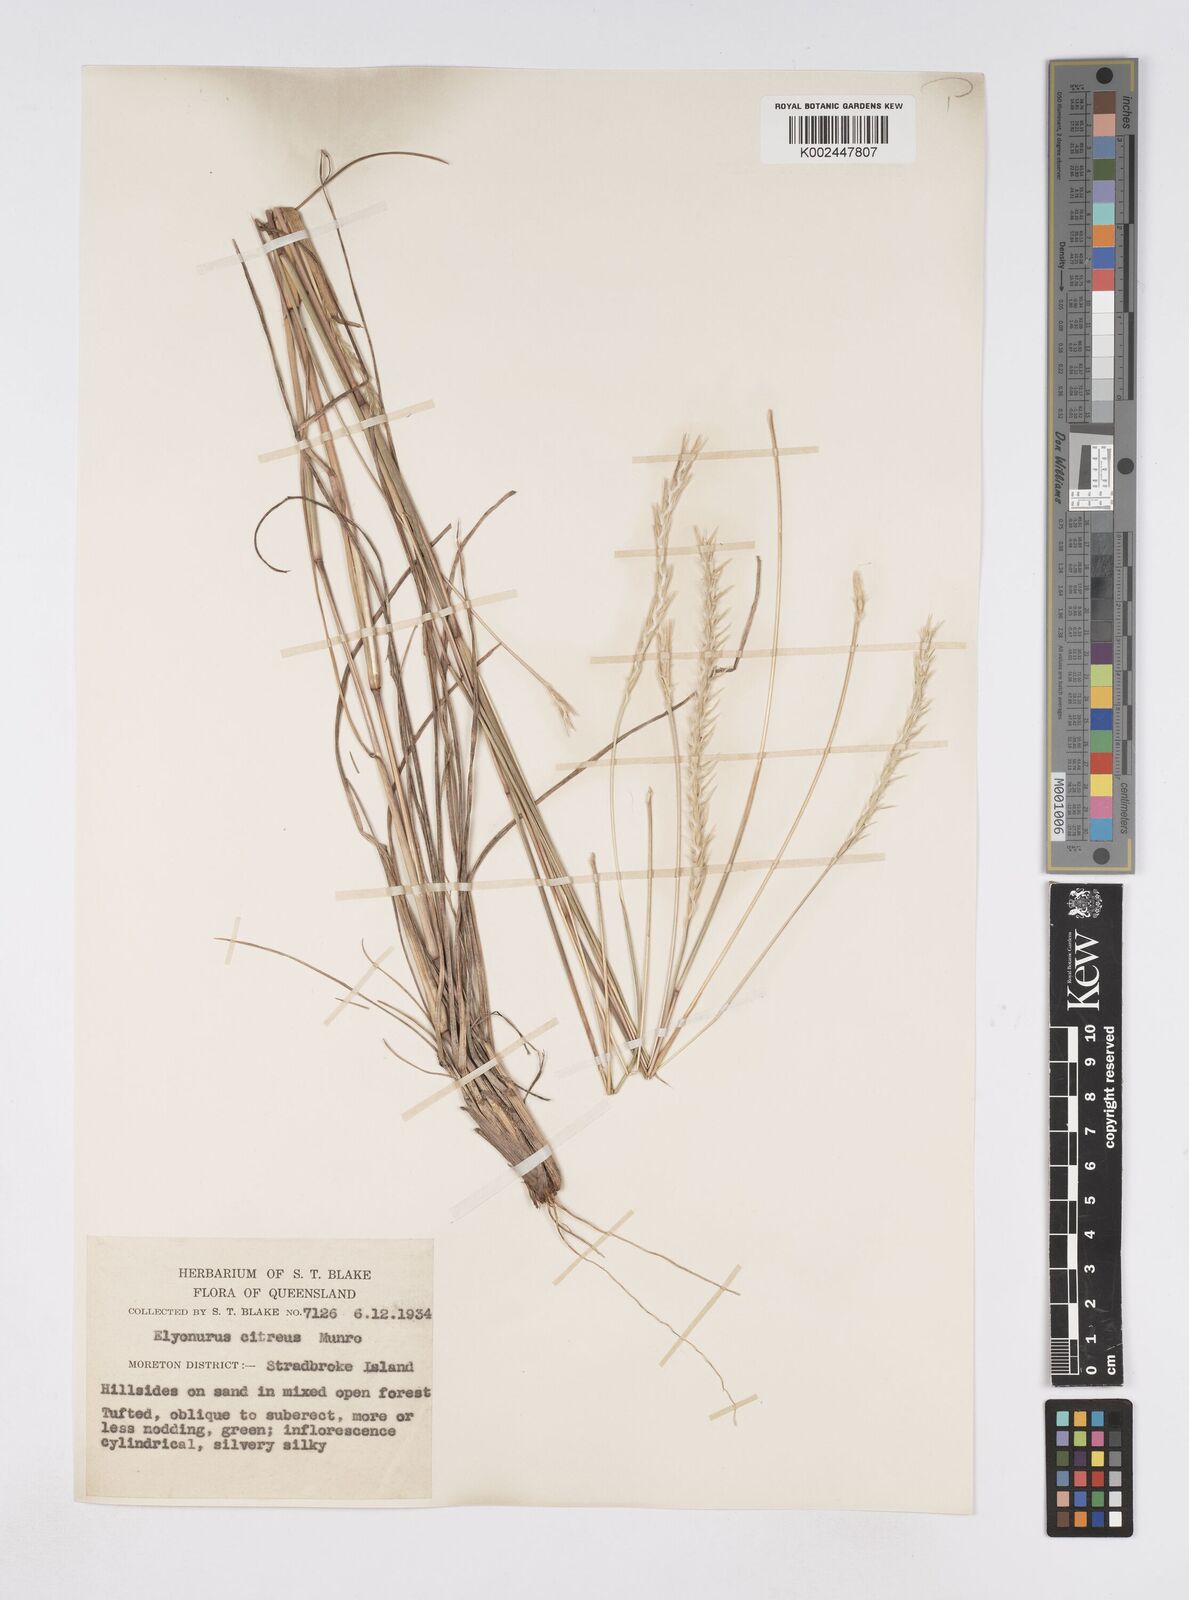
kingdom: Plantae
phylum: Tracheophyta
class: Liliopsida
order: Poales
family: Poaceae
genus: Elionurus
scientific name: Elionurus citreus
